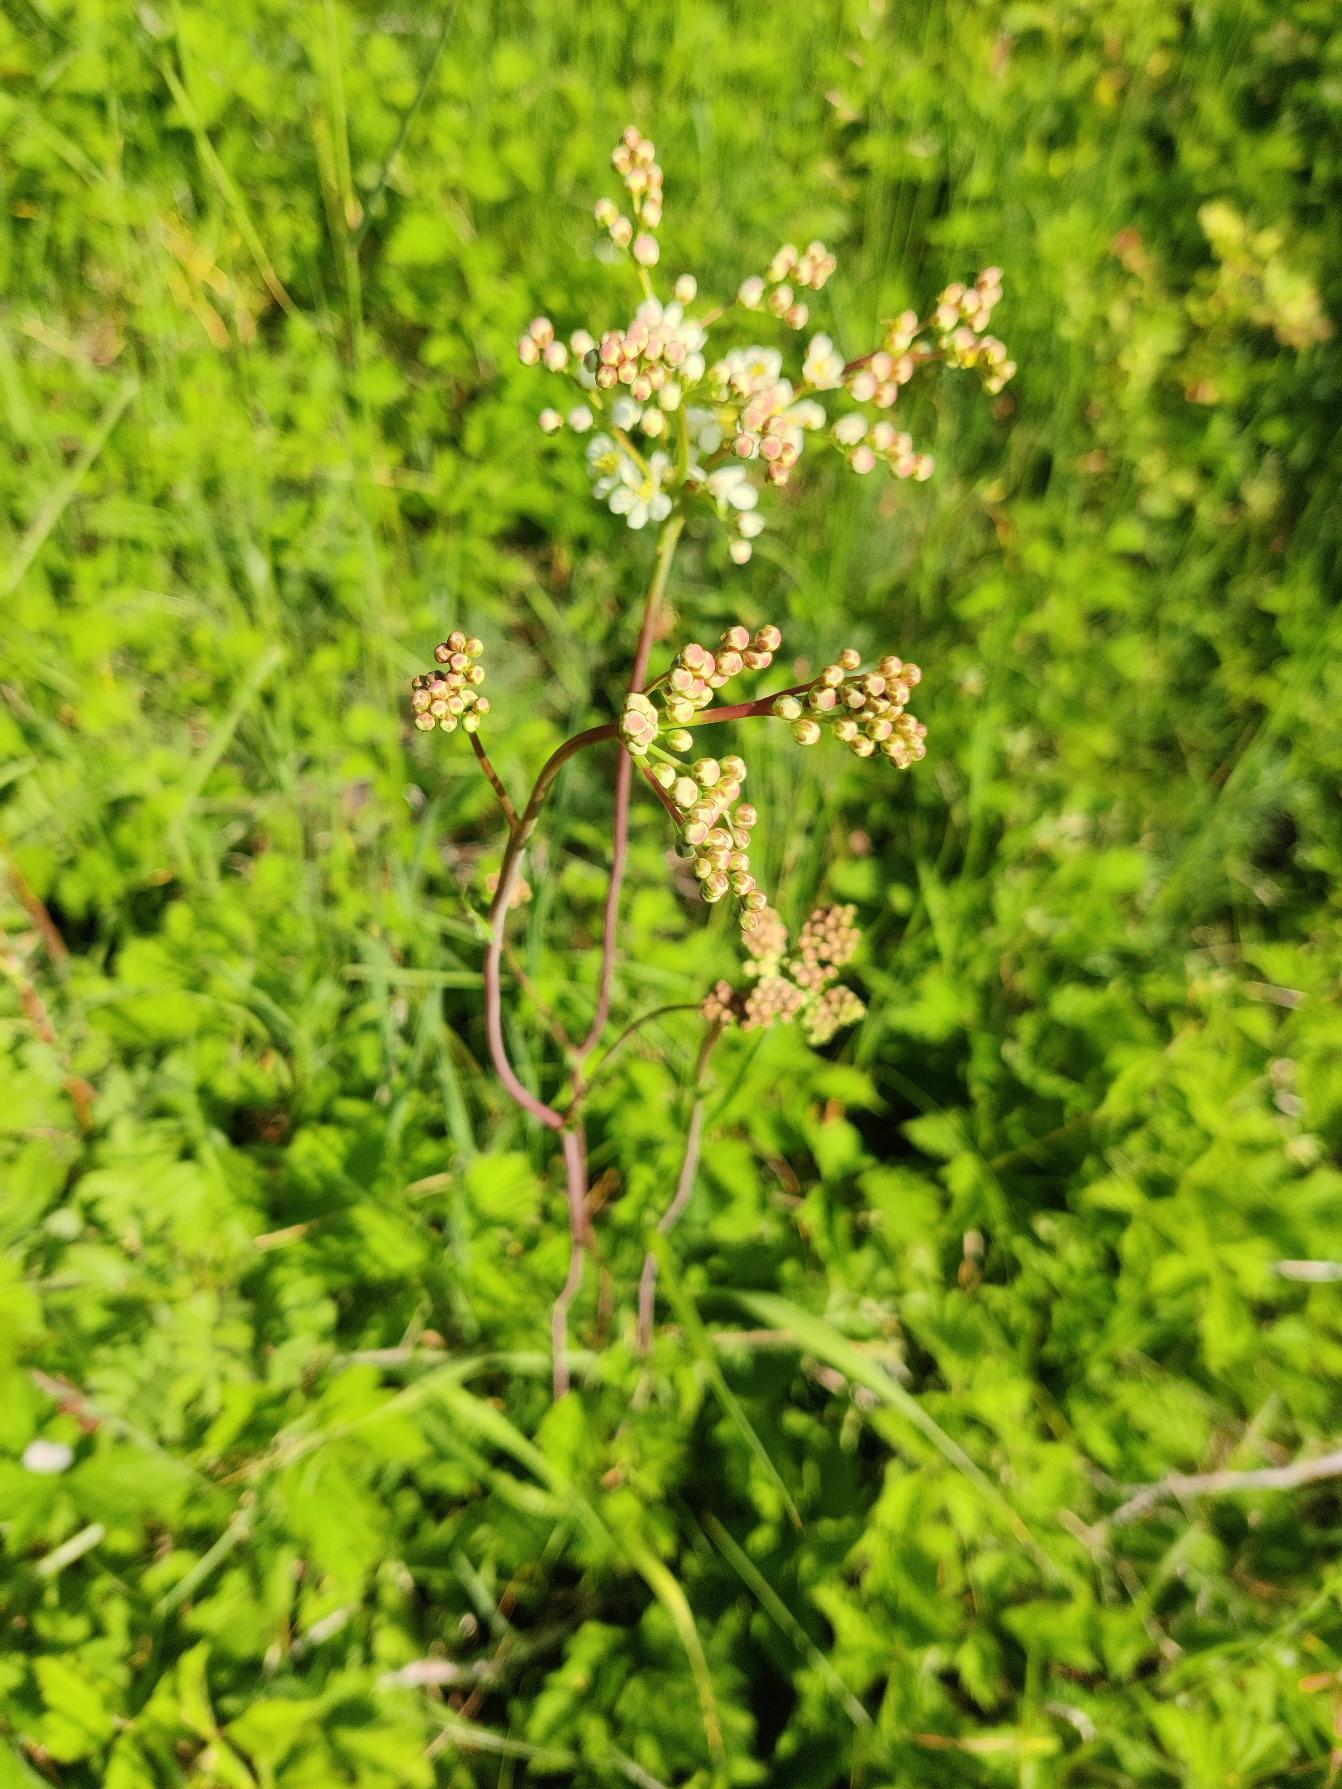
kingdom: Plantae
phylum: Tracheophyta
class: Magnoliopsida
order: Rosales
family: Rosaceae
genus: Filipendula
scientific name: Filipendula vulgaris
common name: Knoldet mjødurt
